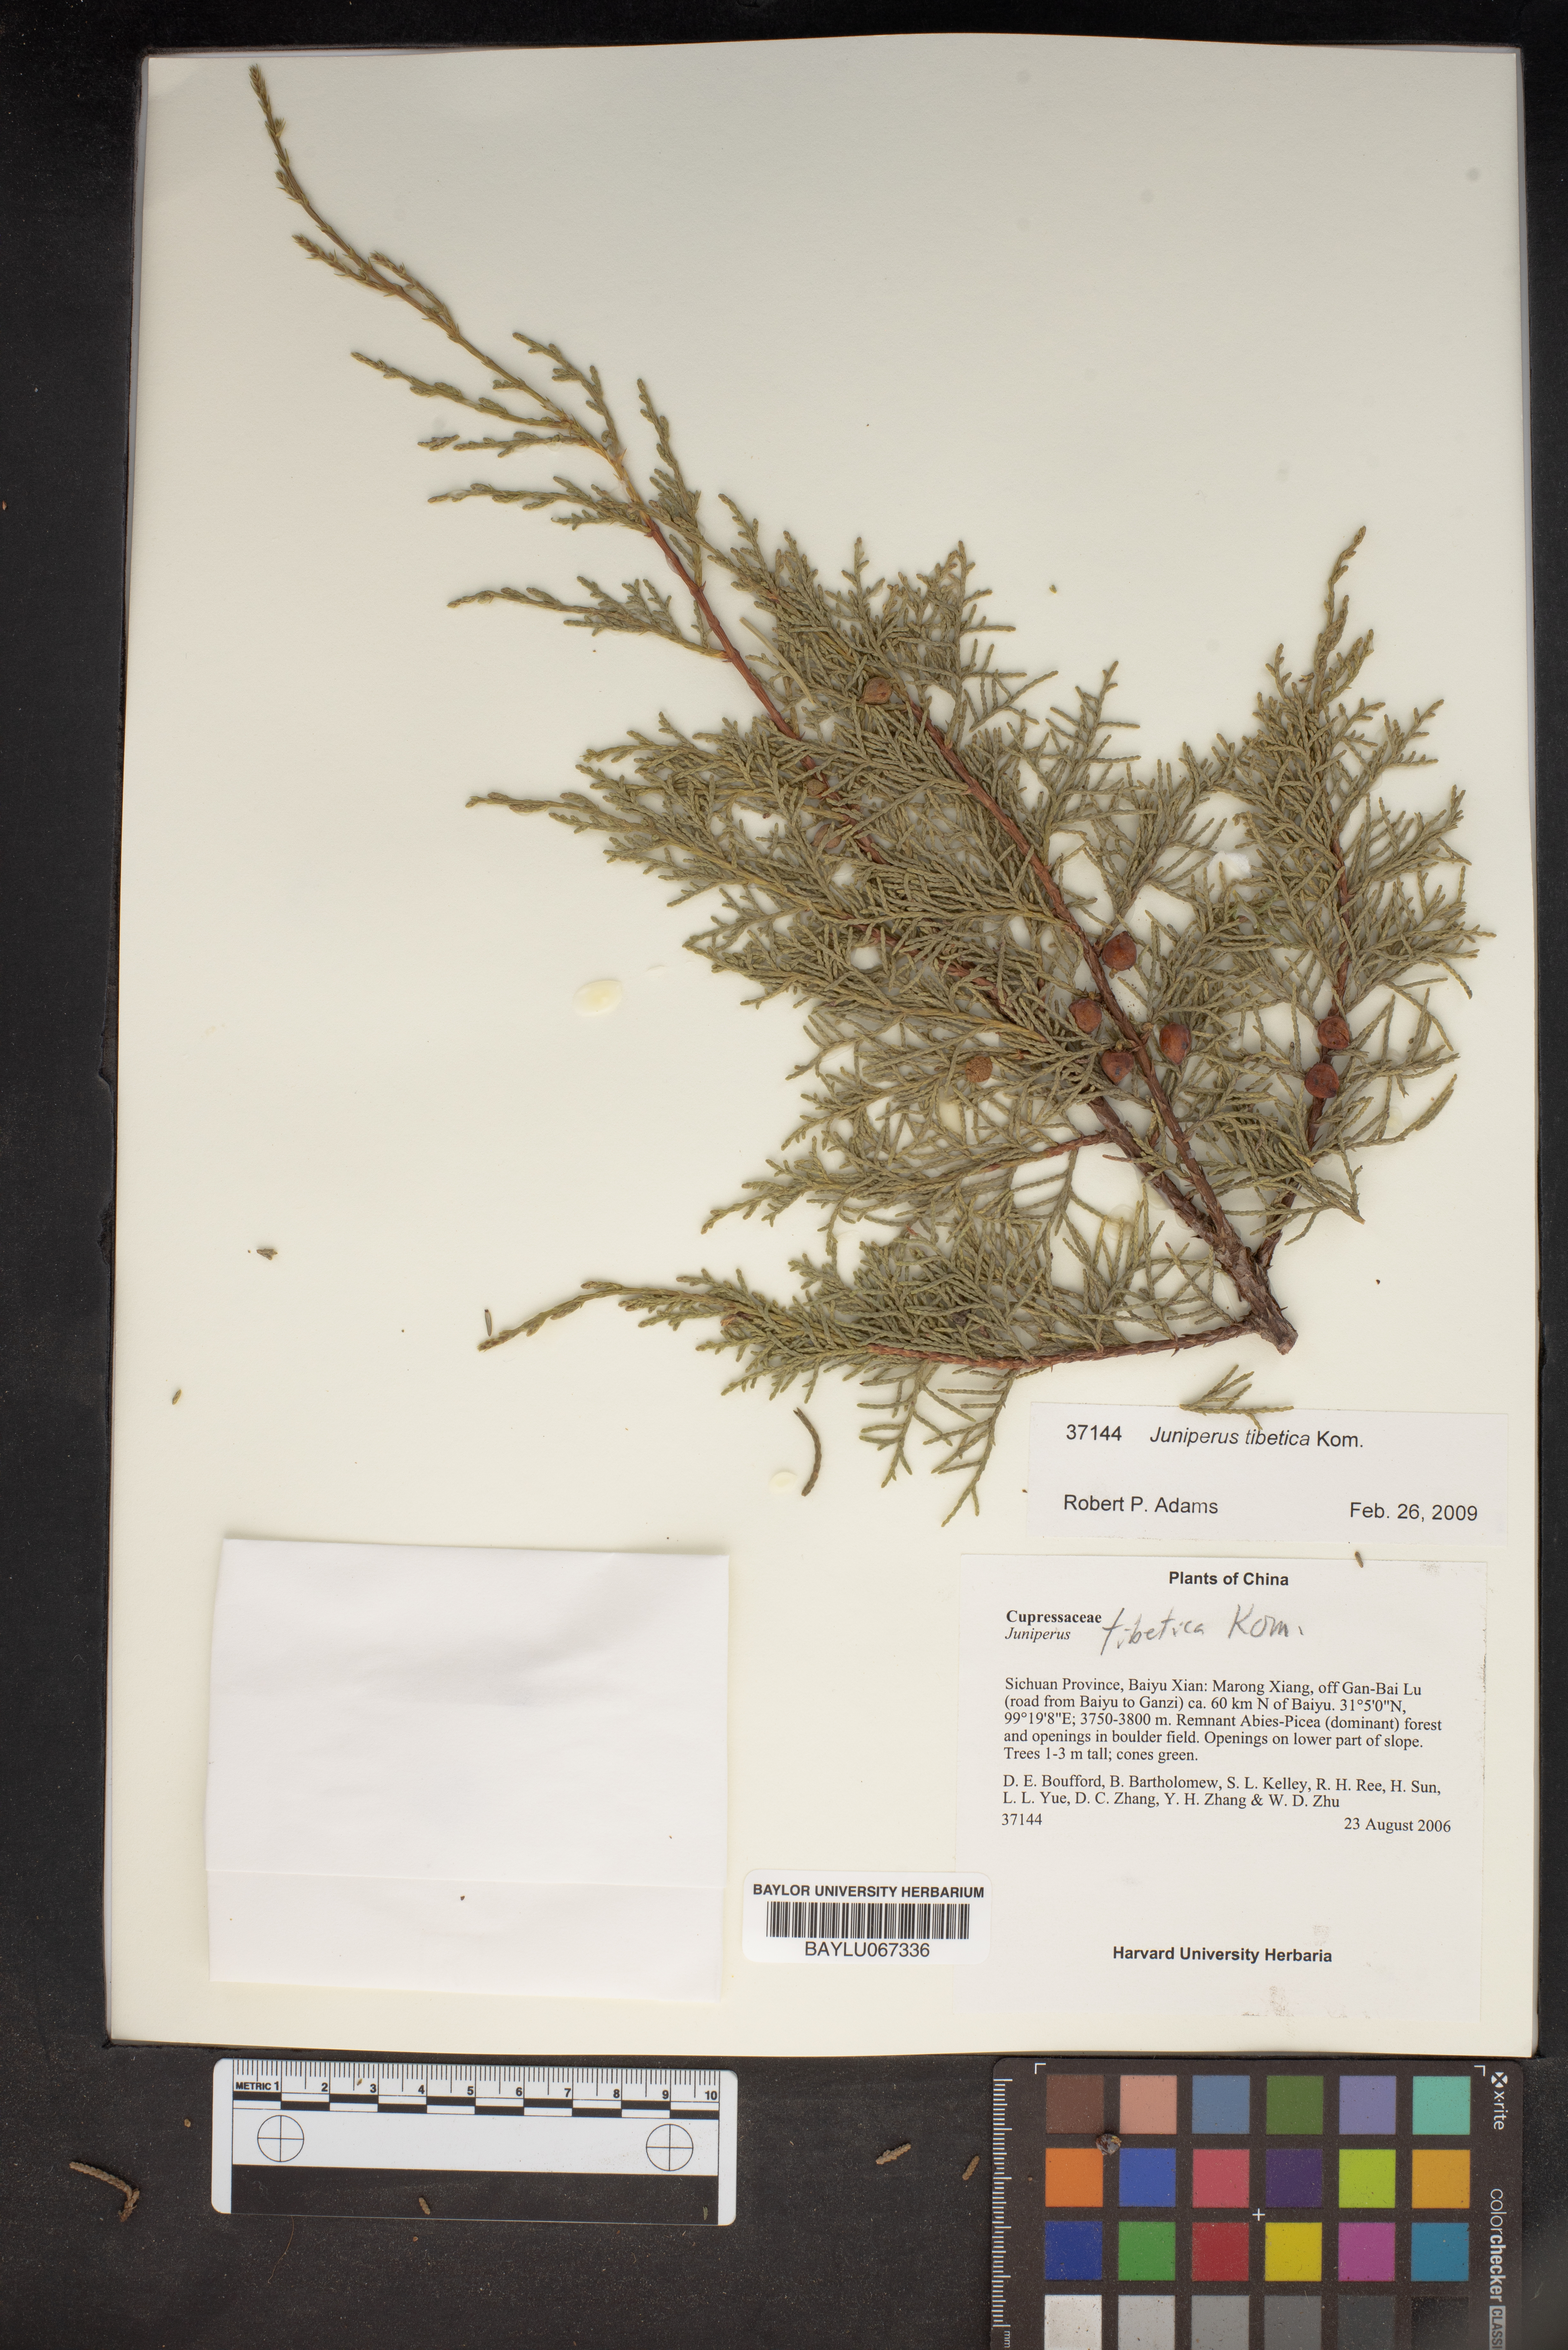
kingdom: Plantae
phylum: Tracheophyta
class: Pinopsida
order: Pinales
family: Cupressaceae
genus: Juniperus
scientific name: Juniperus tibetica
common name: Tibetan juniper
